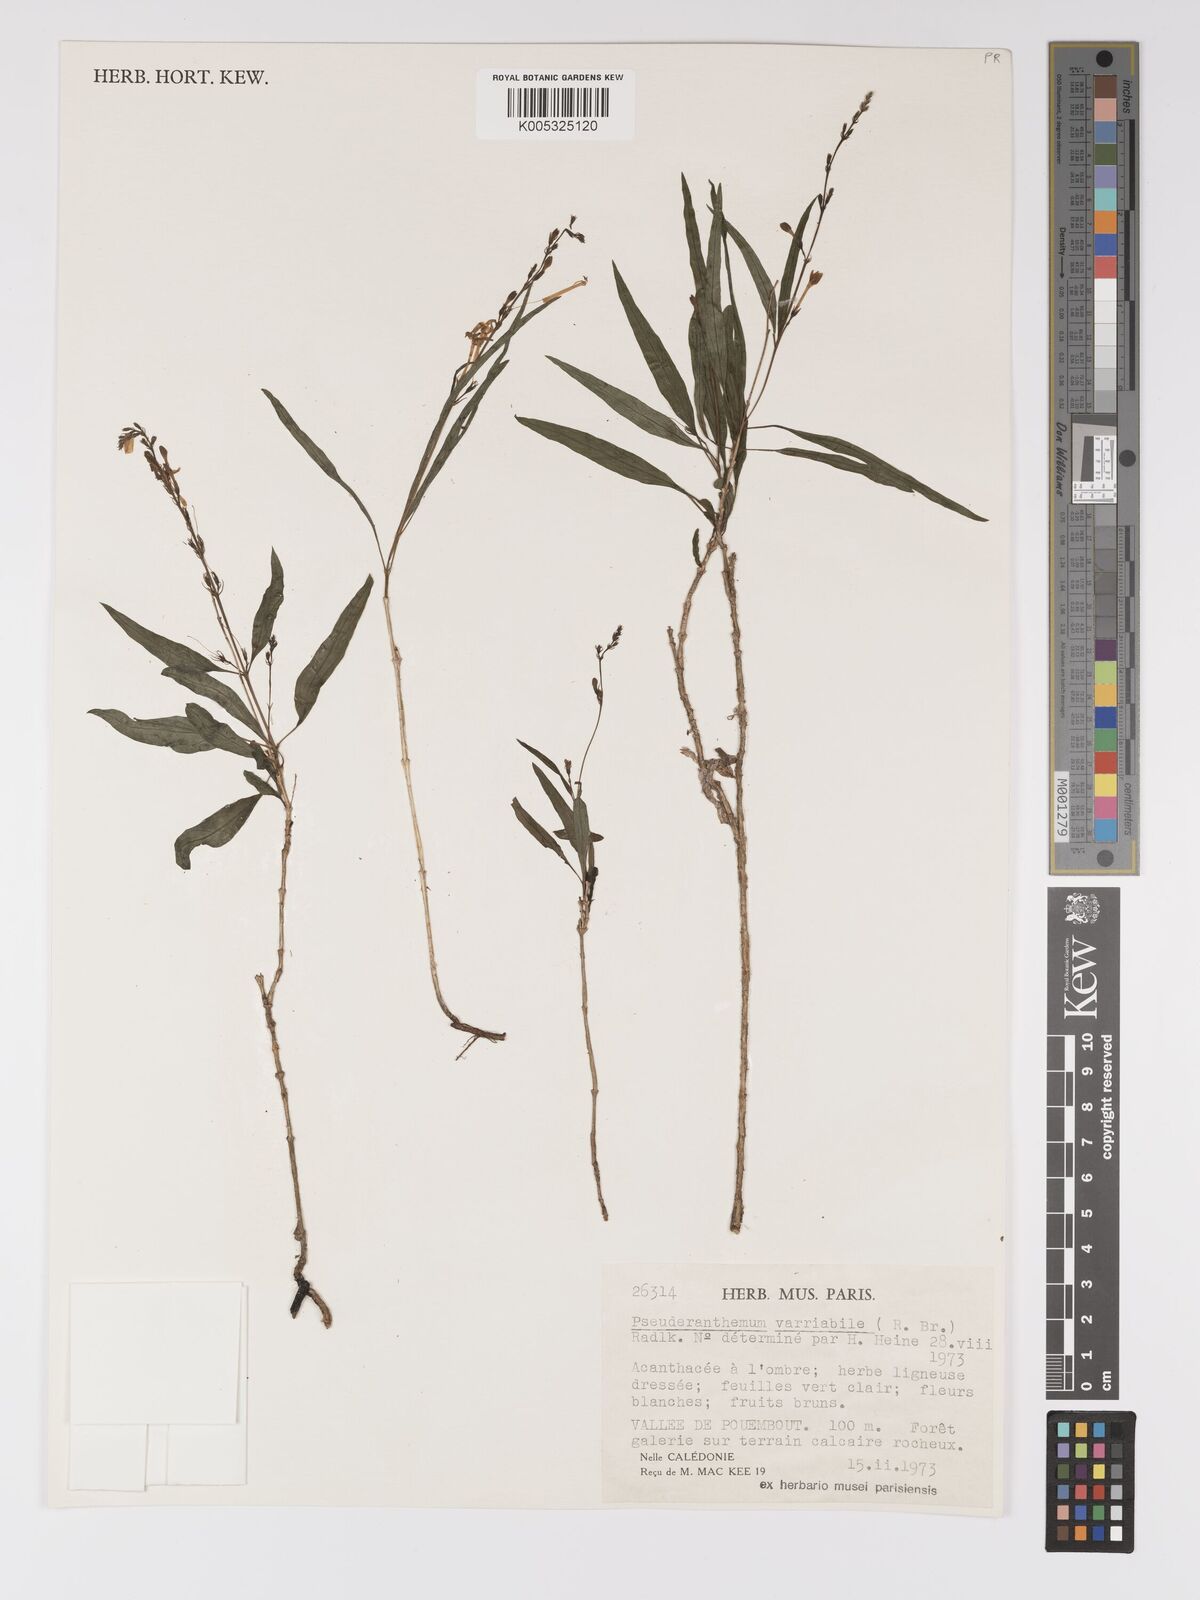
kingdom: Plantae
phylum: Tracheophyta
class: Magnoliopsida
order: Lamiales
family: Acanthaceae
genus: Pseuderanthemum
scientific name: Pseuderanthemum variabile
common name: Night and afternoon
